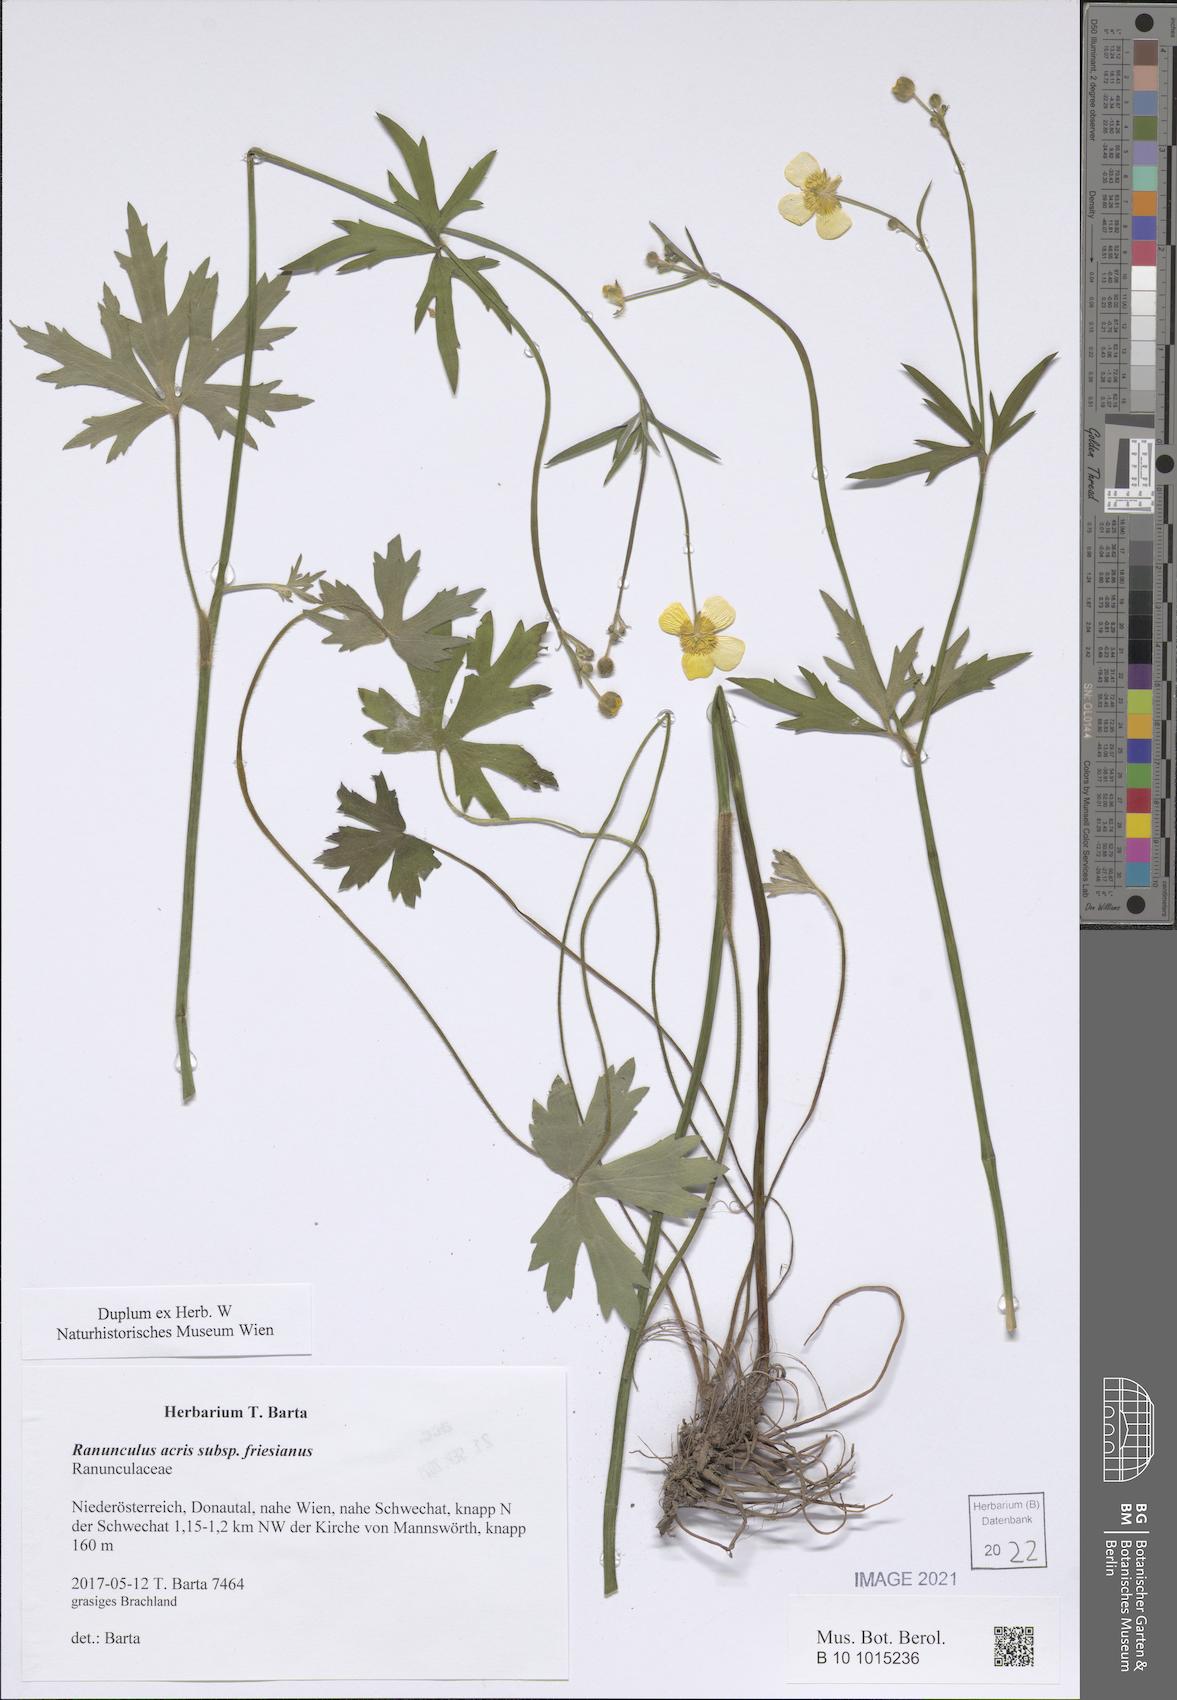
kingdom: Plantae
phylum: Tracheophyta
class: Magnoliopsida
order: Ranunculales
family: Ranunculaceae
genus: Ranunculus
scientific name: Ranunculus acris
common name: Meadow buttercup
